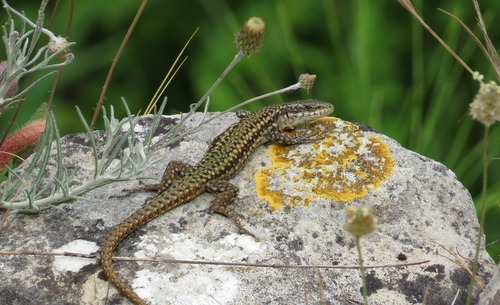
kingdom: Animalia
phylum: Chordata
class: Squamata
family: Lacertidae
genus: Podarcis
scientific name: Podarcis virescens
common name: Geniez’s wall lizard
